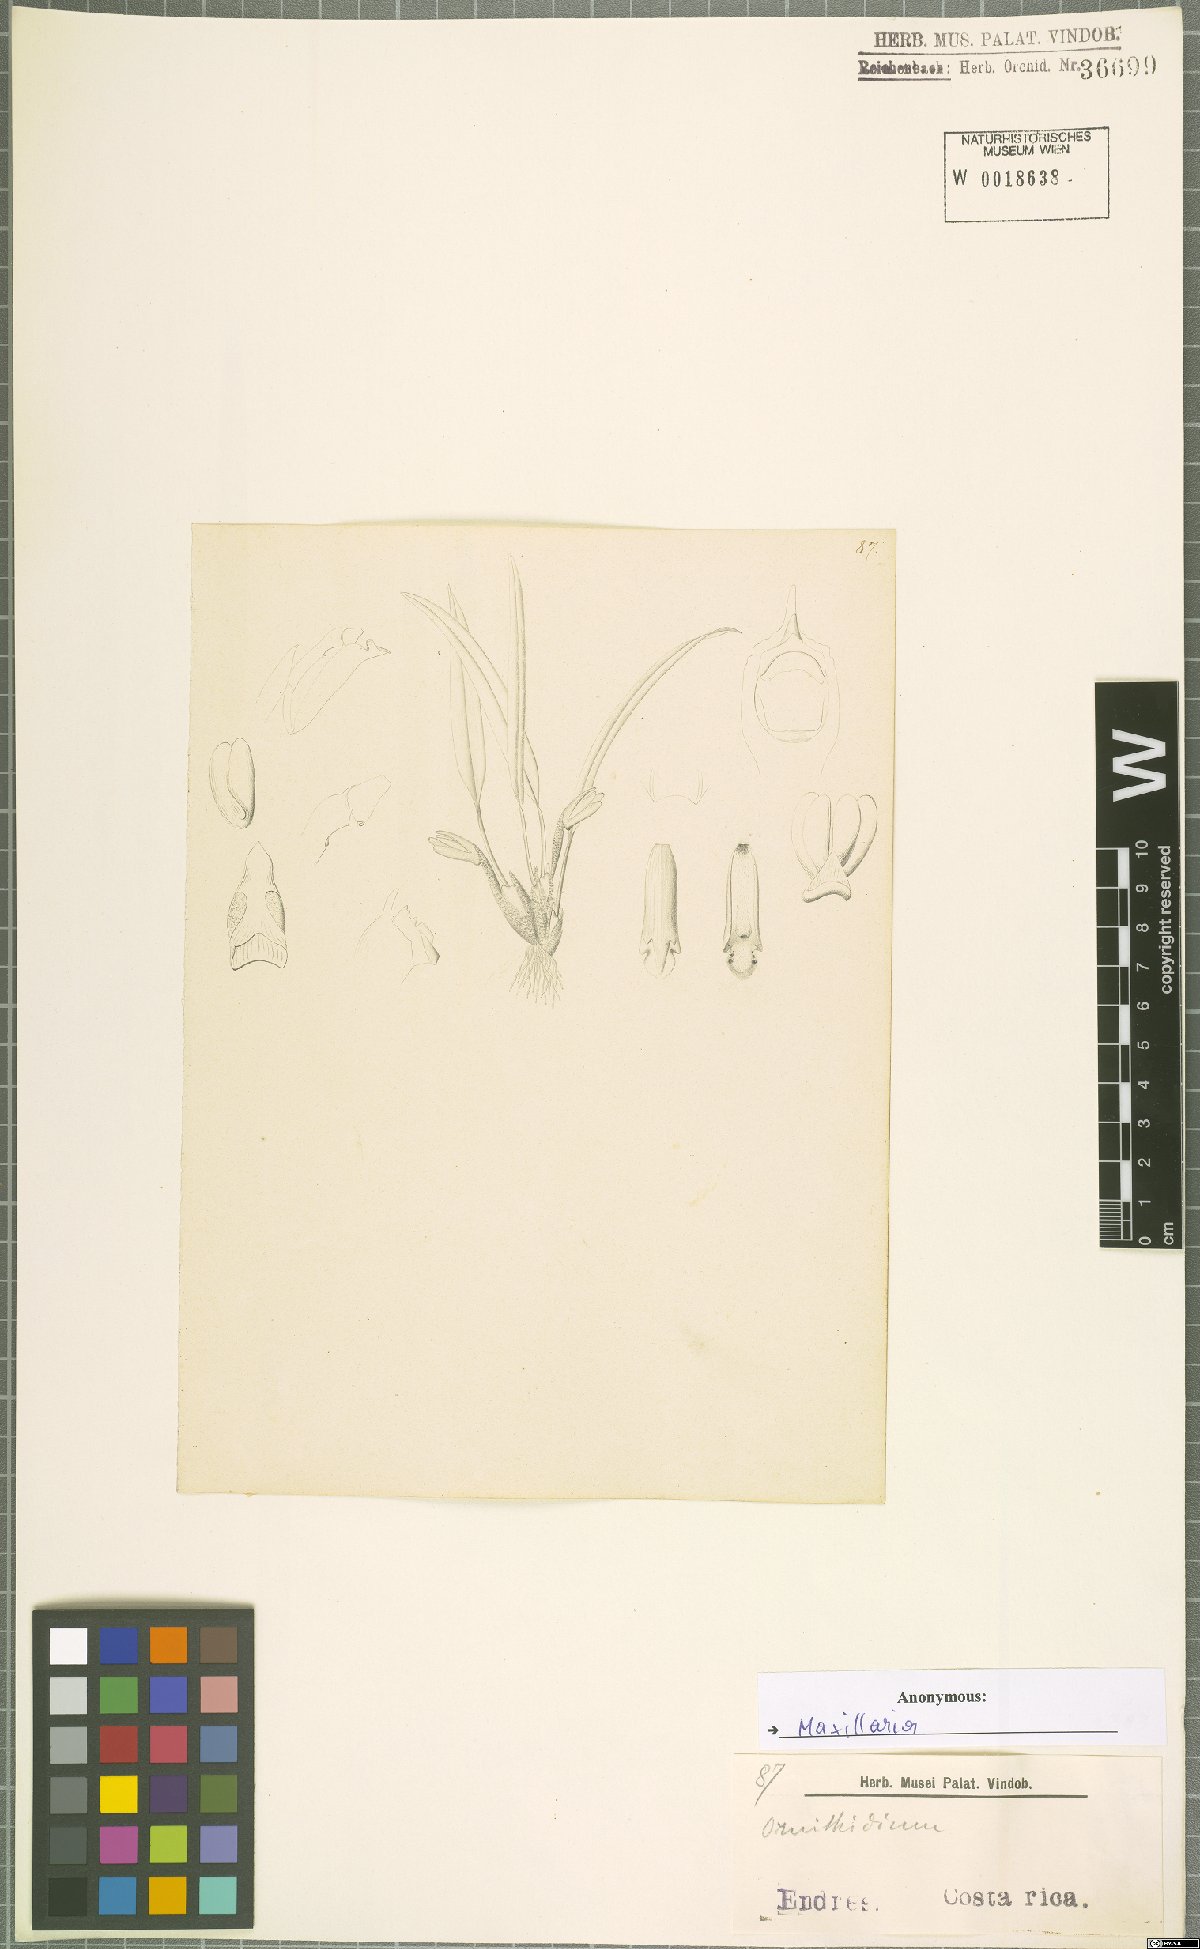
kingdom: Plantae
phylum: Tracheophyta
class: Liliopsida
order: Asparagales
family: Orchidaceae
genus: Maxillaria
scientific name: Maxillaria
